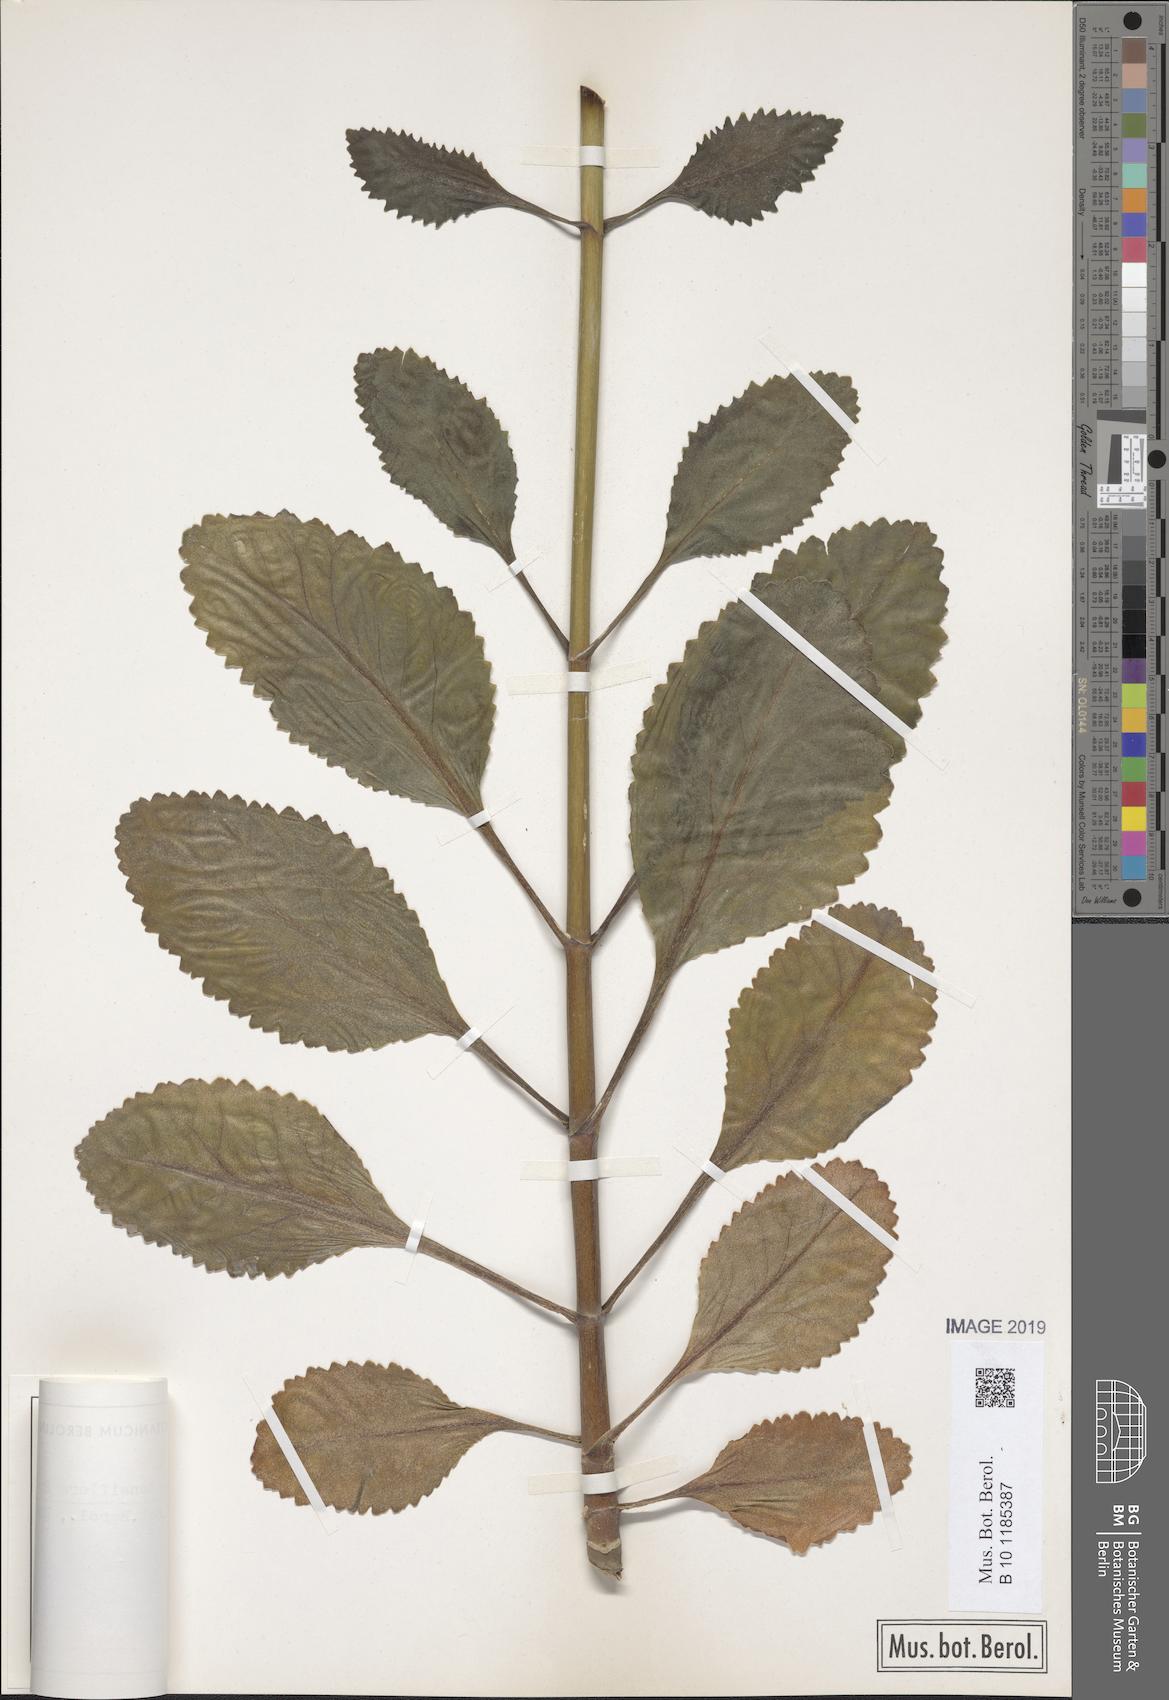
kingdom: Plantae
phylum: Tracheophyta
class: Magnoliopsida
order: Saxifragales
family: Crassulaceae
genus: Kalanchoe
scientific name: Kalanchoe densiflora
